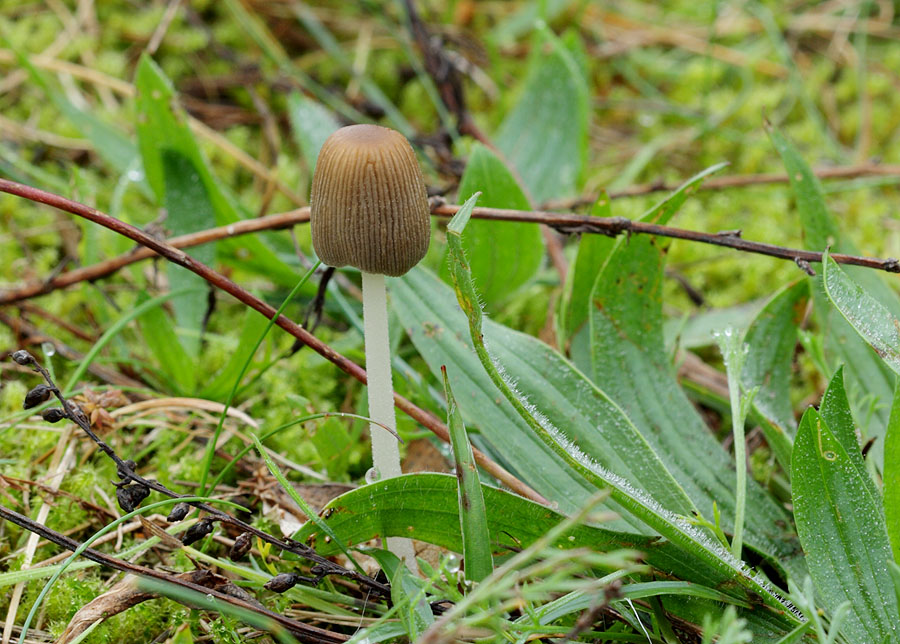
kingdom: Fungi
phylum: Basidiomycota
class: Agaricomycetes
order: Agaricales
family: Psathyrellaceae
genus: Tulosesus
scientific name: Tulosesus sclerocystidiosus
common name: brunhåret blækhat
